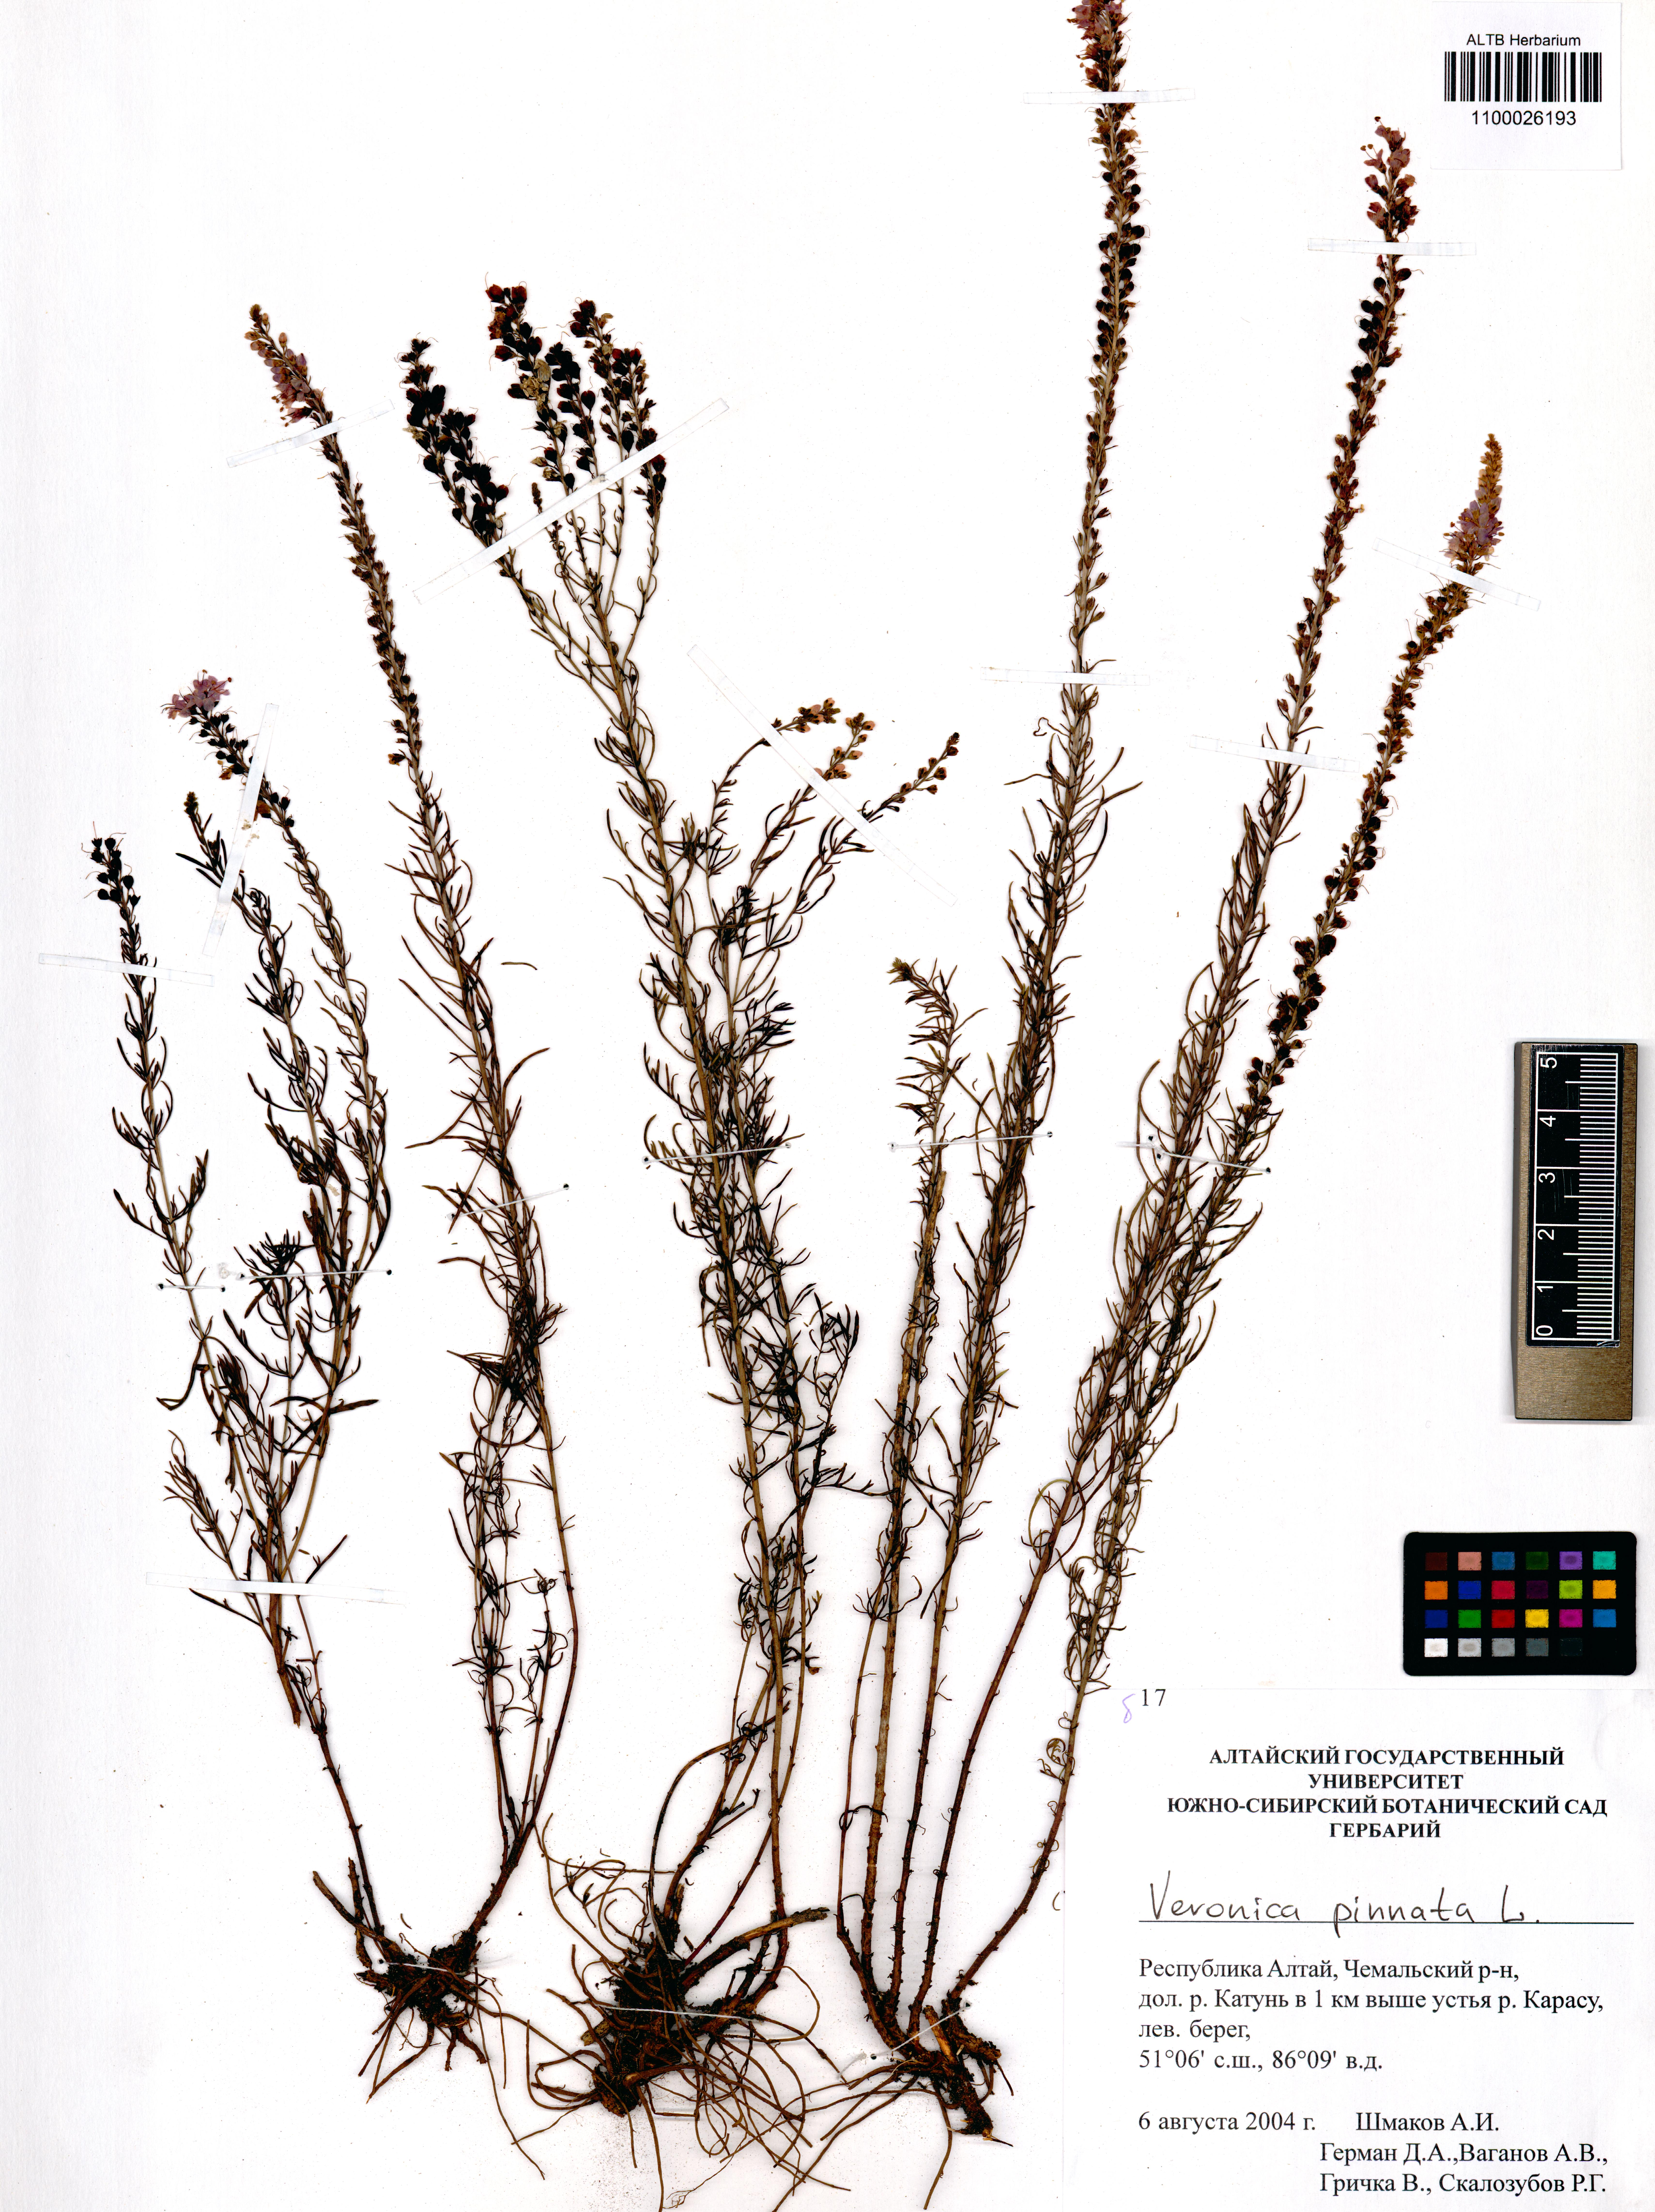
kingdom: Plantae
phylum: Tracheophyta
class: Magnoliopsida
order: Lamiales
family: Plantaginaceae
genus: Veronica
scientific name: Veronica pinnata
